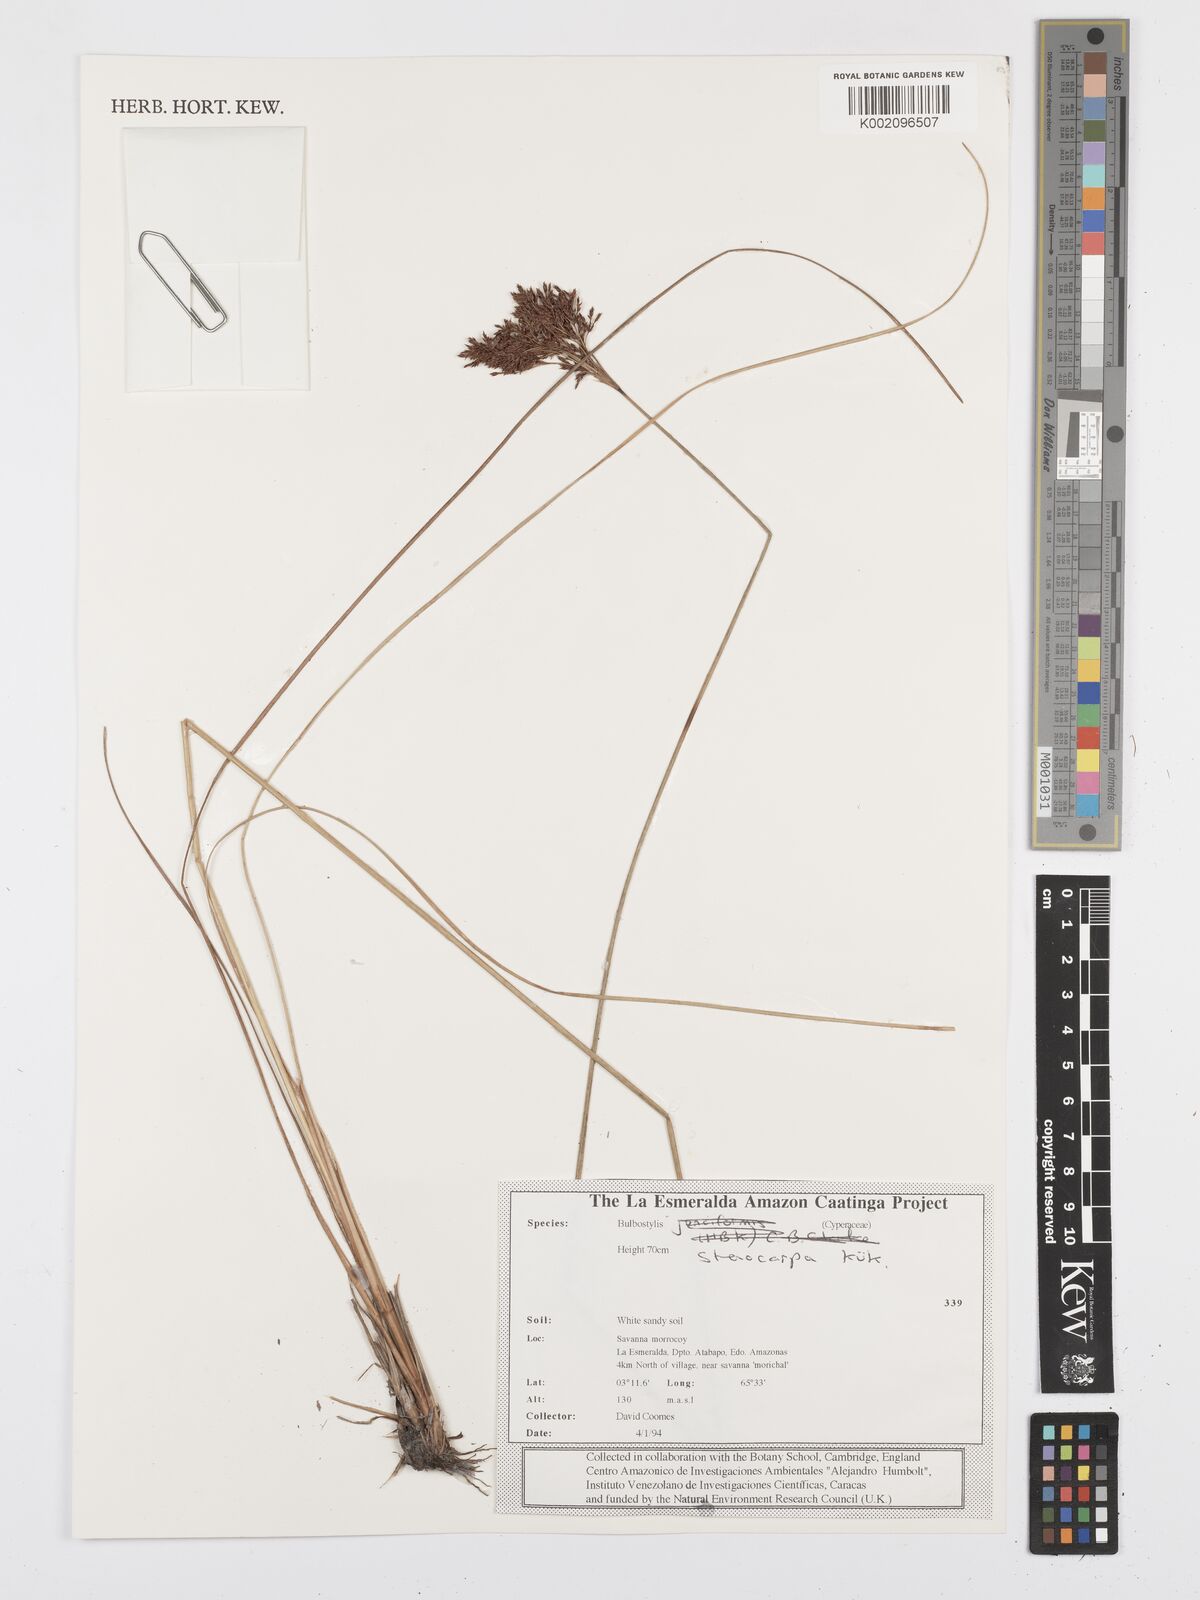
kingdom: Plantae
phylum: Tracheophyta
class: Liliopsida
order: Poales
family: Cyperaceae
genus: Bulbostylis
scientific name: Bulbostylis stenocarpa
